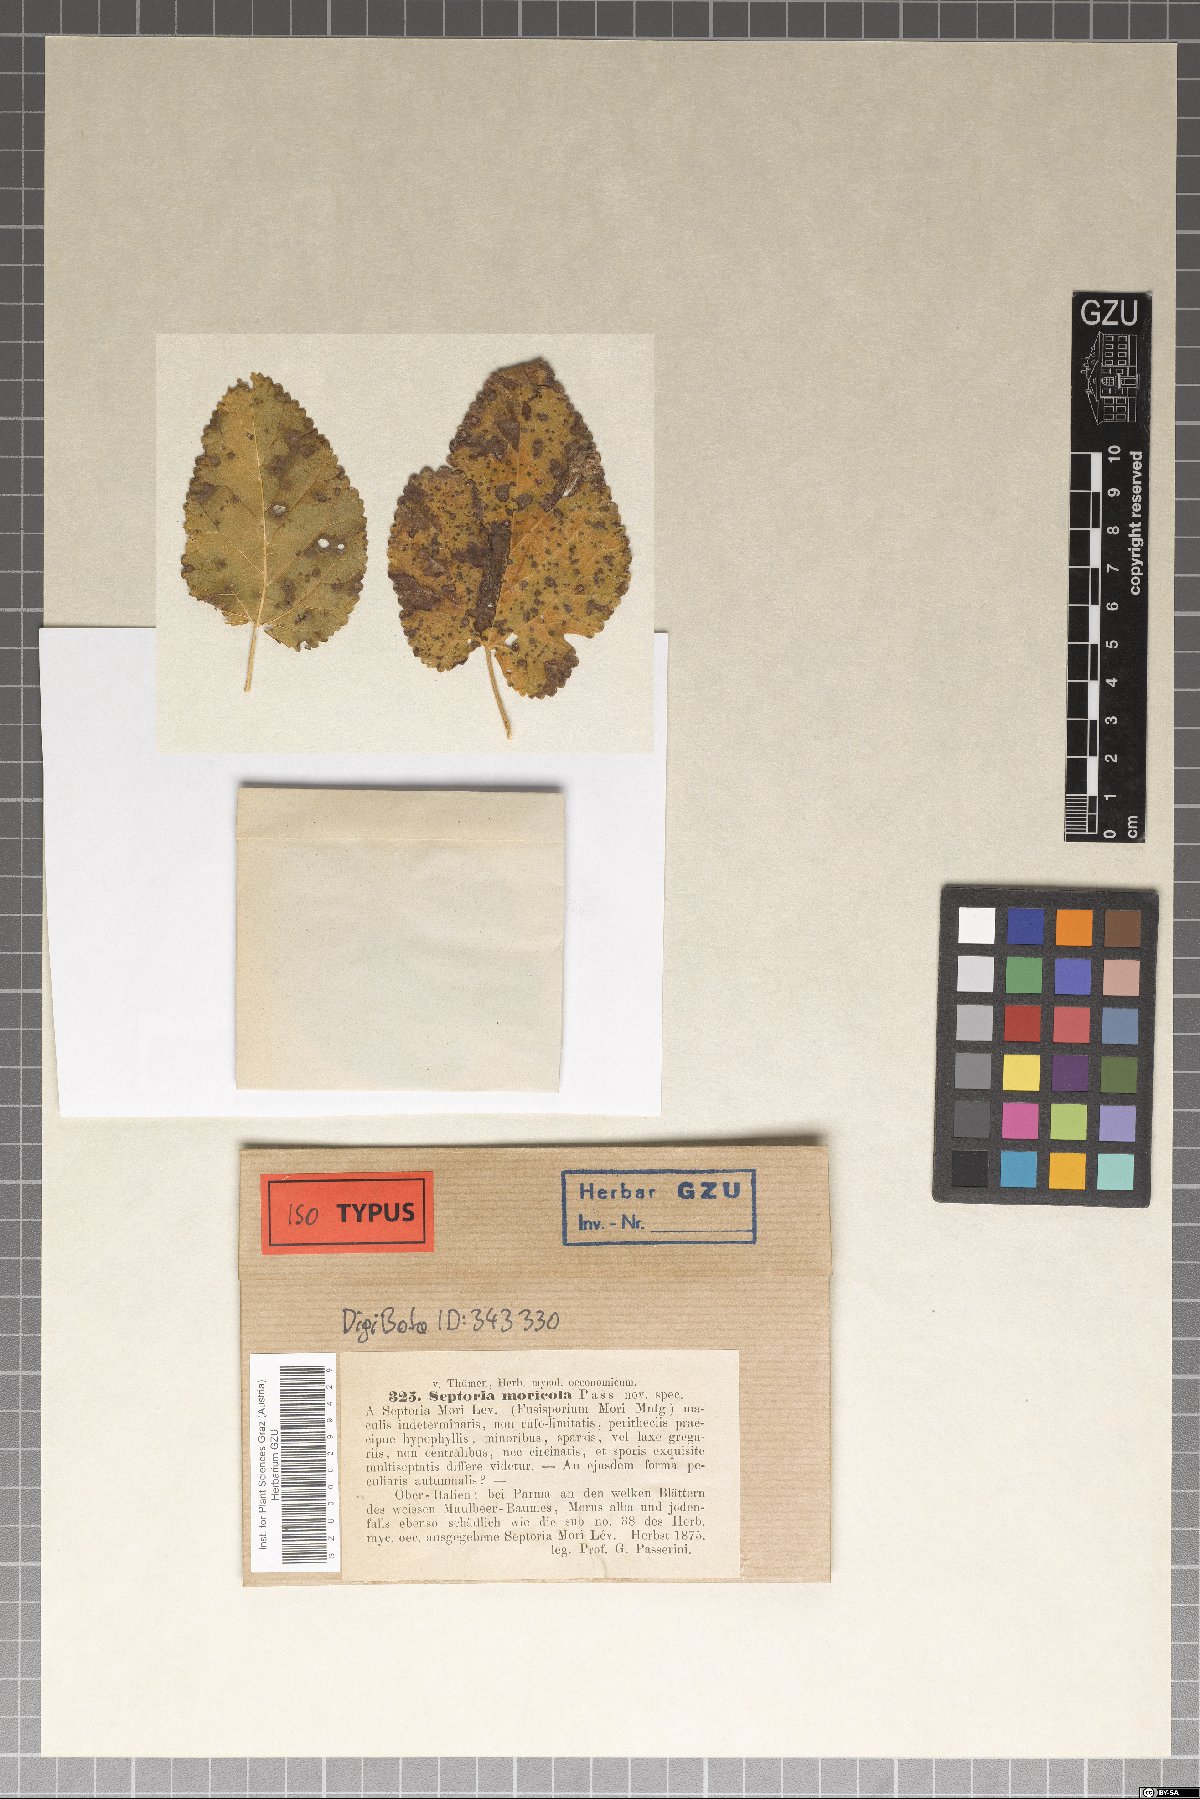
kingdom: Fungi
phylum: Ascomycota
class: Dothideomycetes
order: Mycosphaerellales
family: Mycosphaerellaceae
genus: Septoria
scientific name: Septoria
